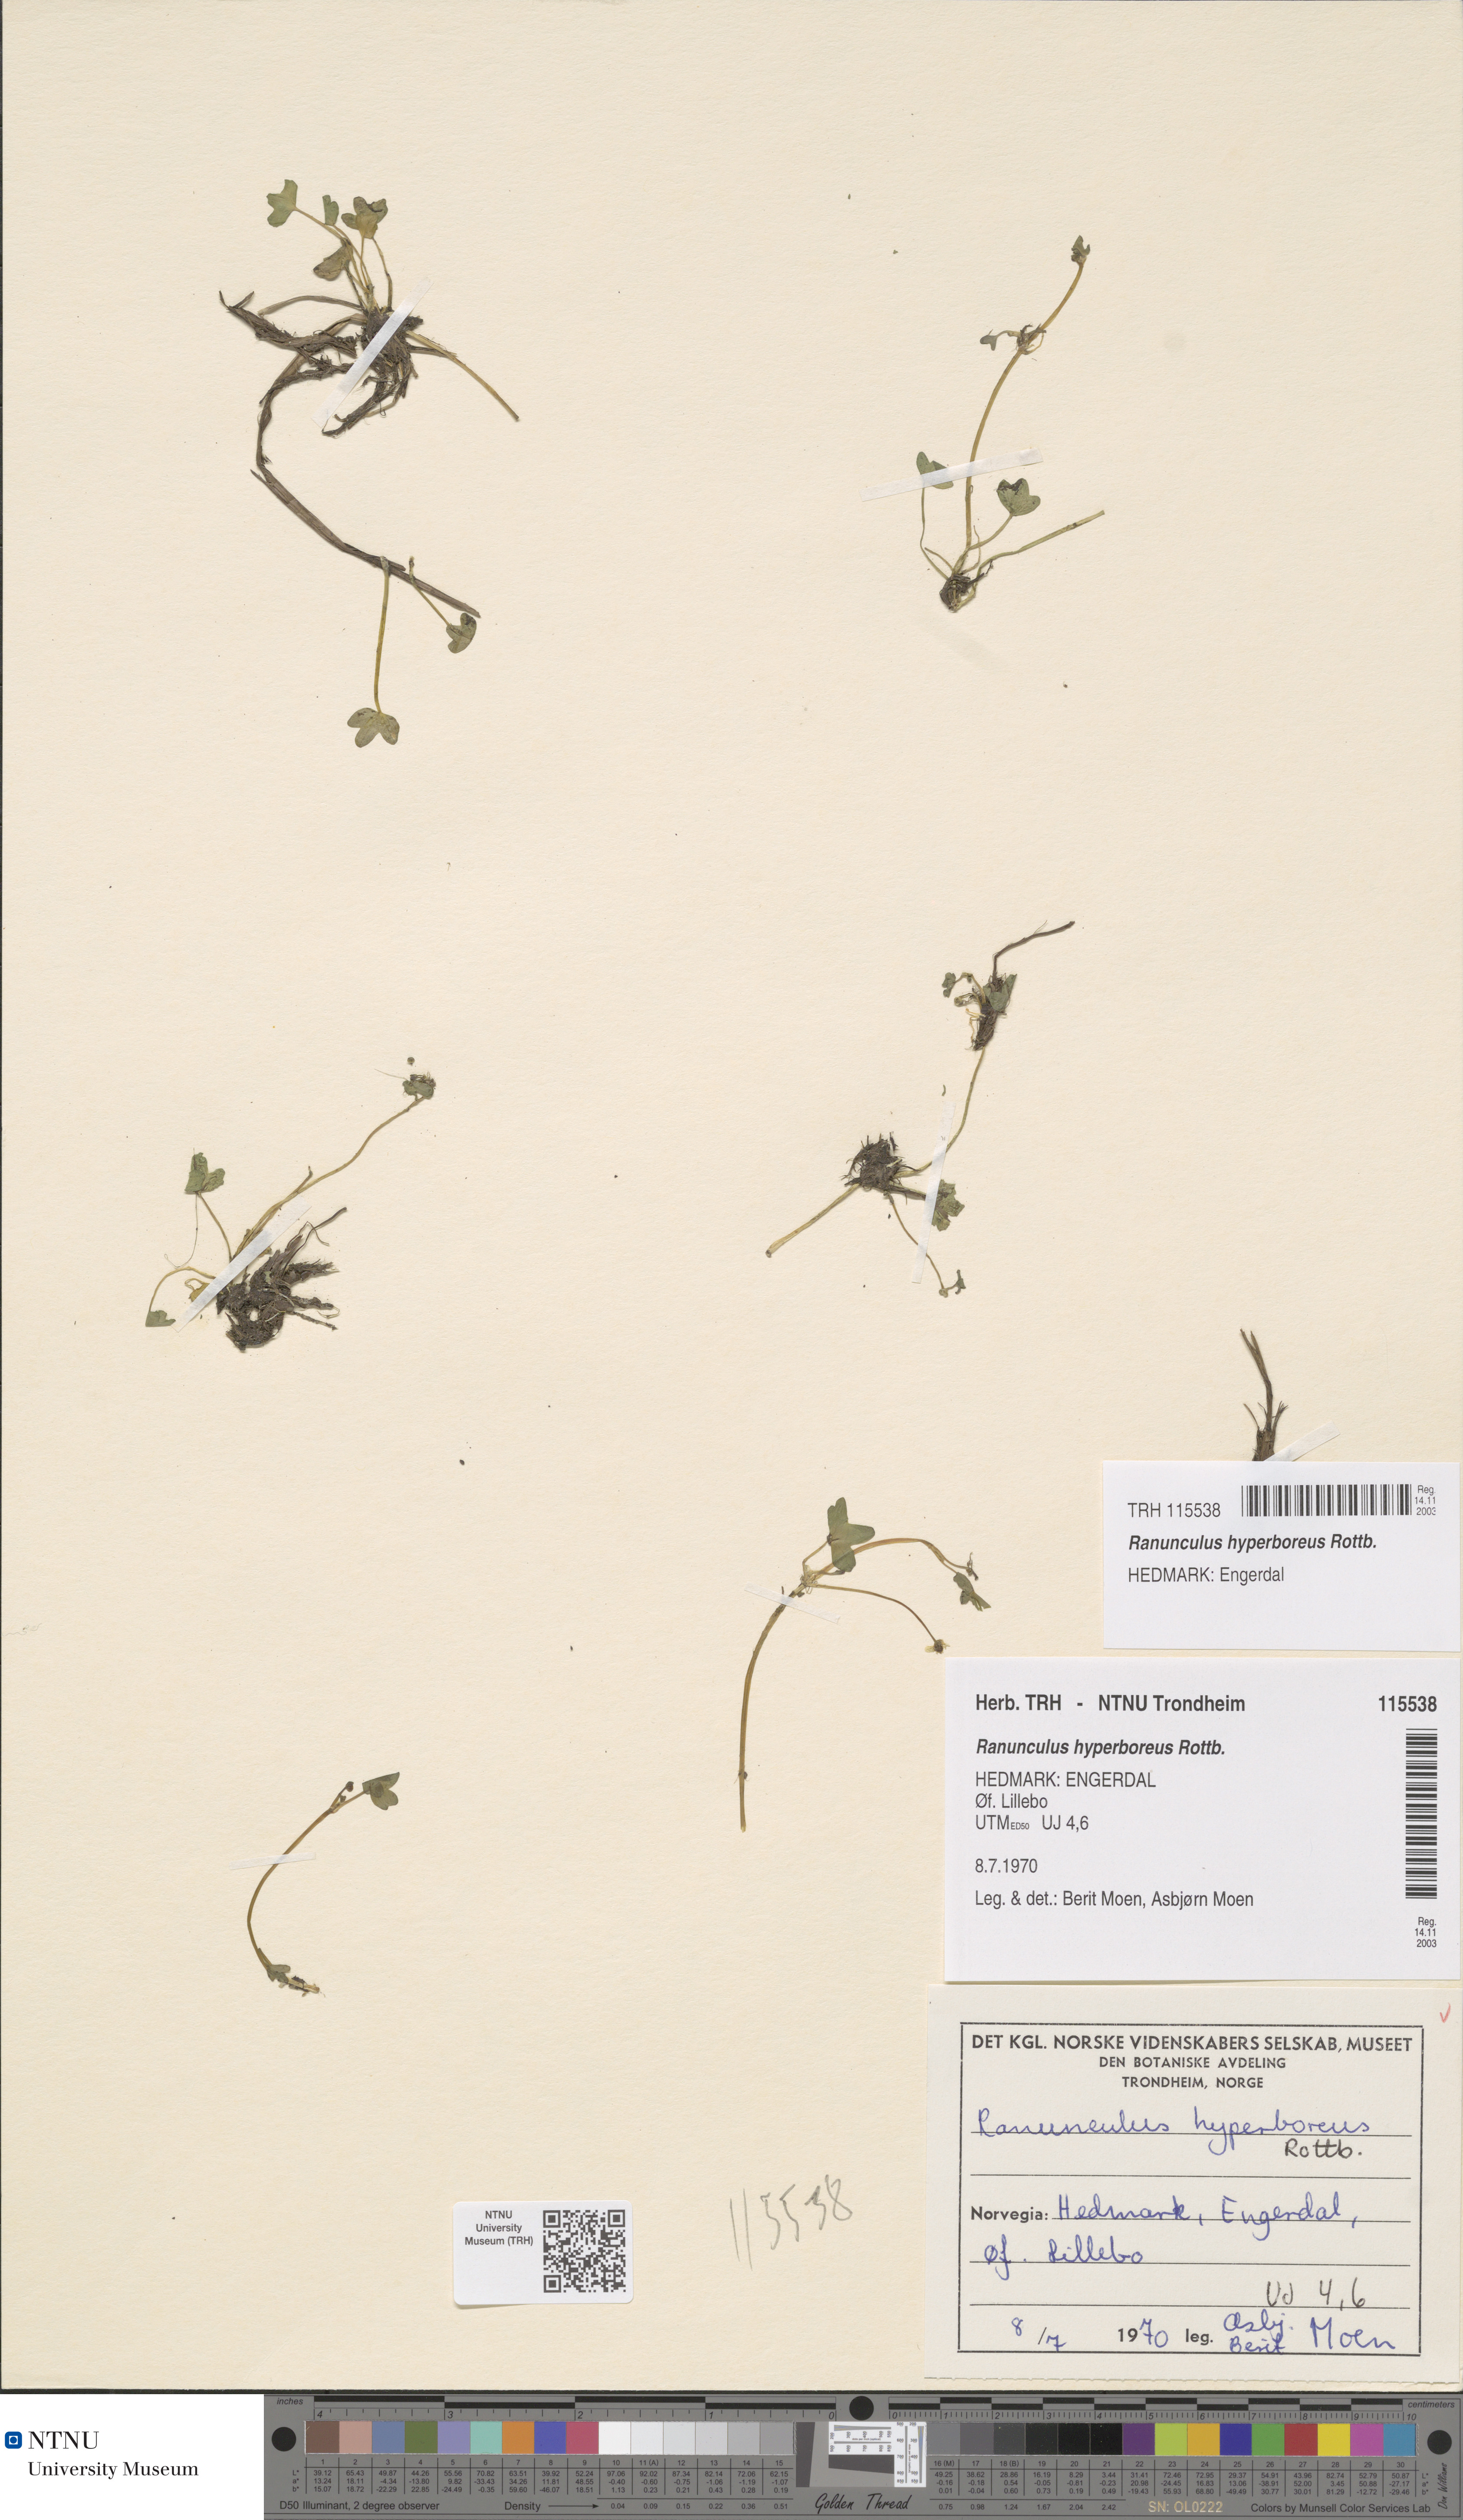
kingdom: Plantae
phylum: Tracheophyta
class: Magnoliopsida
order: Ranunculales
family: Ranunculaceae
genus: Ranunculus
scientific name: Ranunculus hyperboreus
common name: Arctic buttercup
